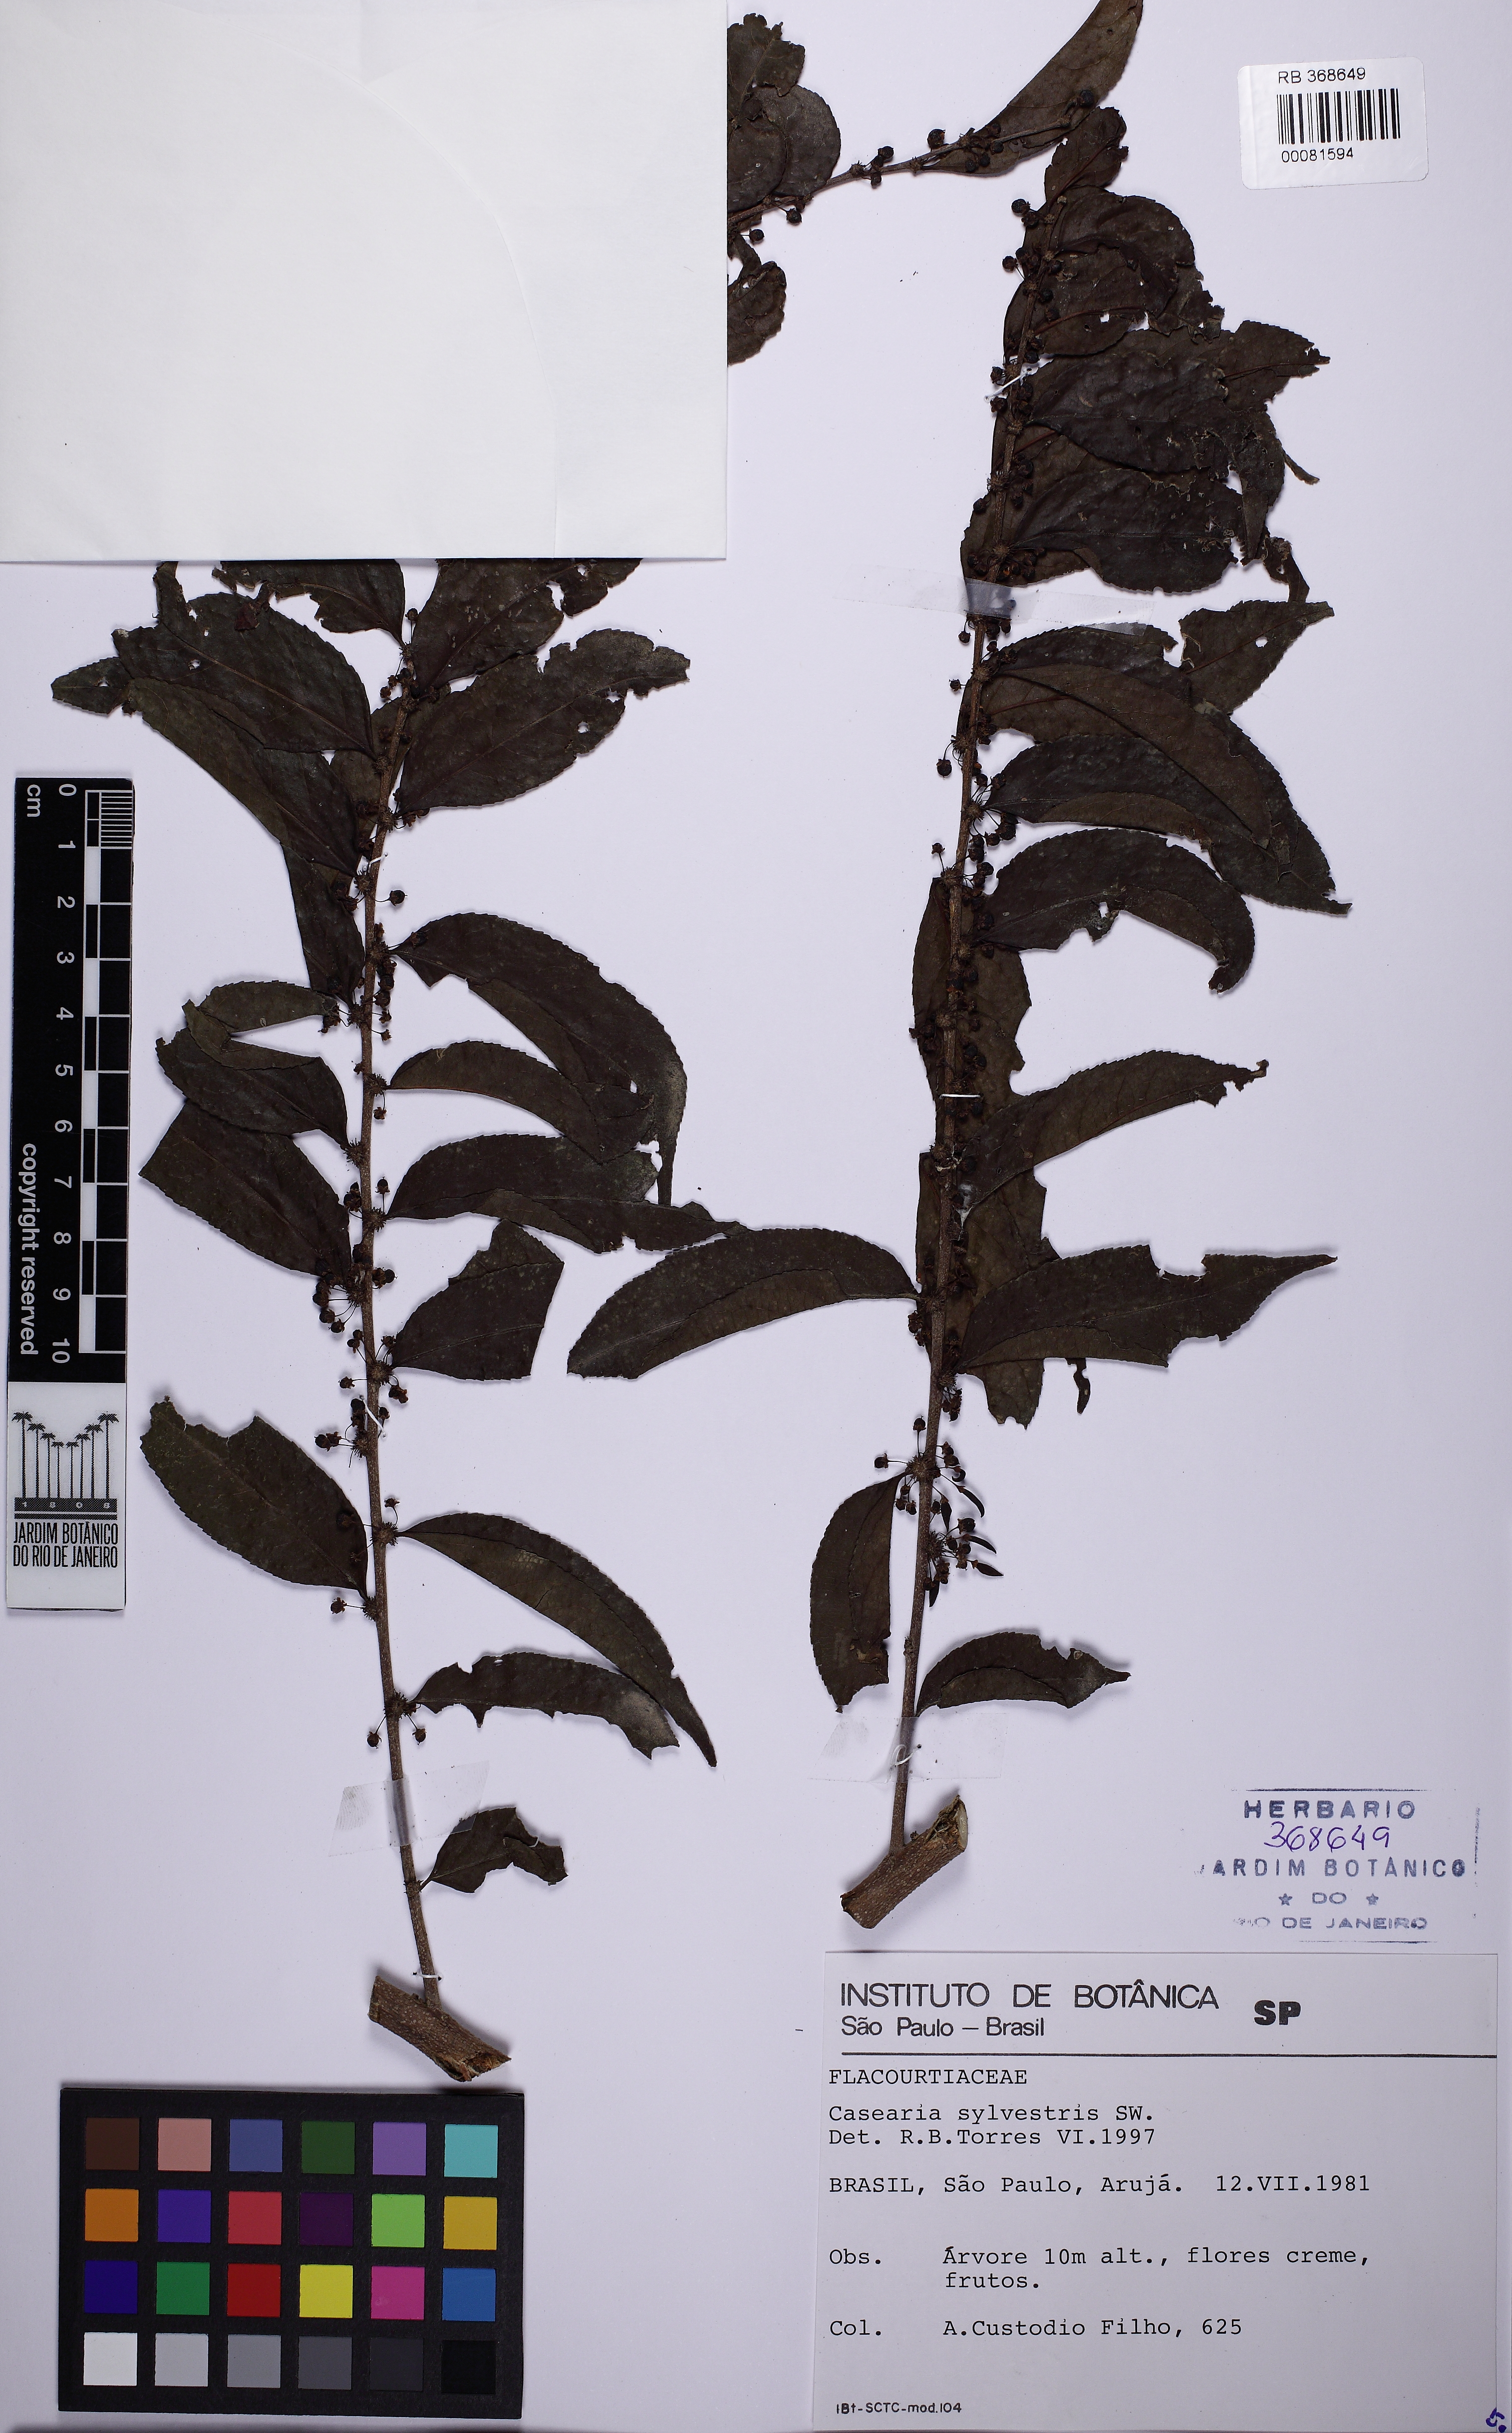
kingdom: Plantae
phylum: Tracheophyta
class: Magnoliopsida
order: Malpighiales
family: Salicaceae
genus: Casearia
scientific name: Casearia sylvestris
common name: Wild sage
